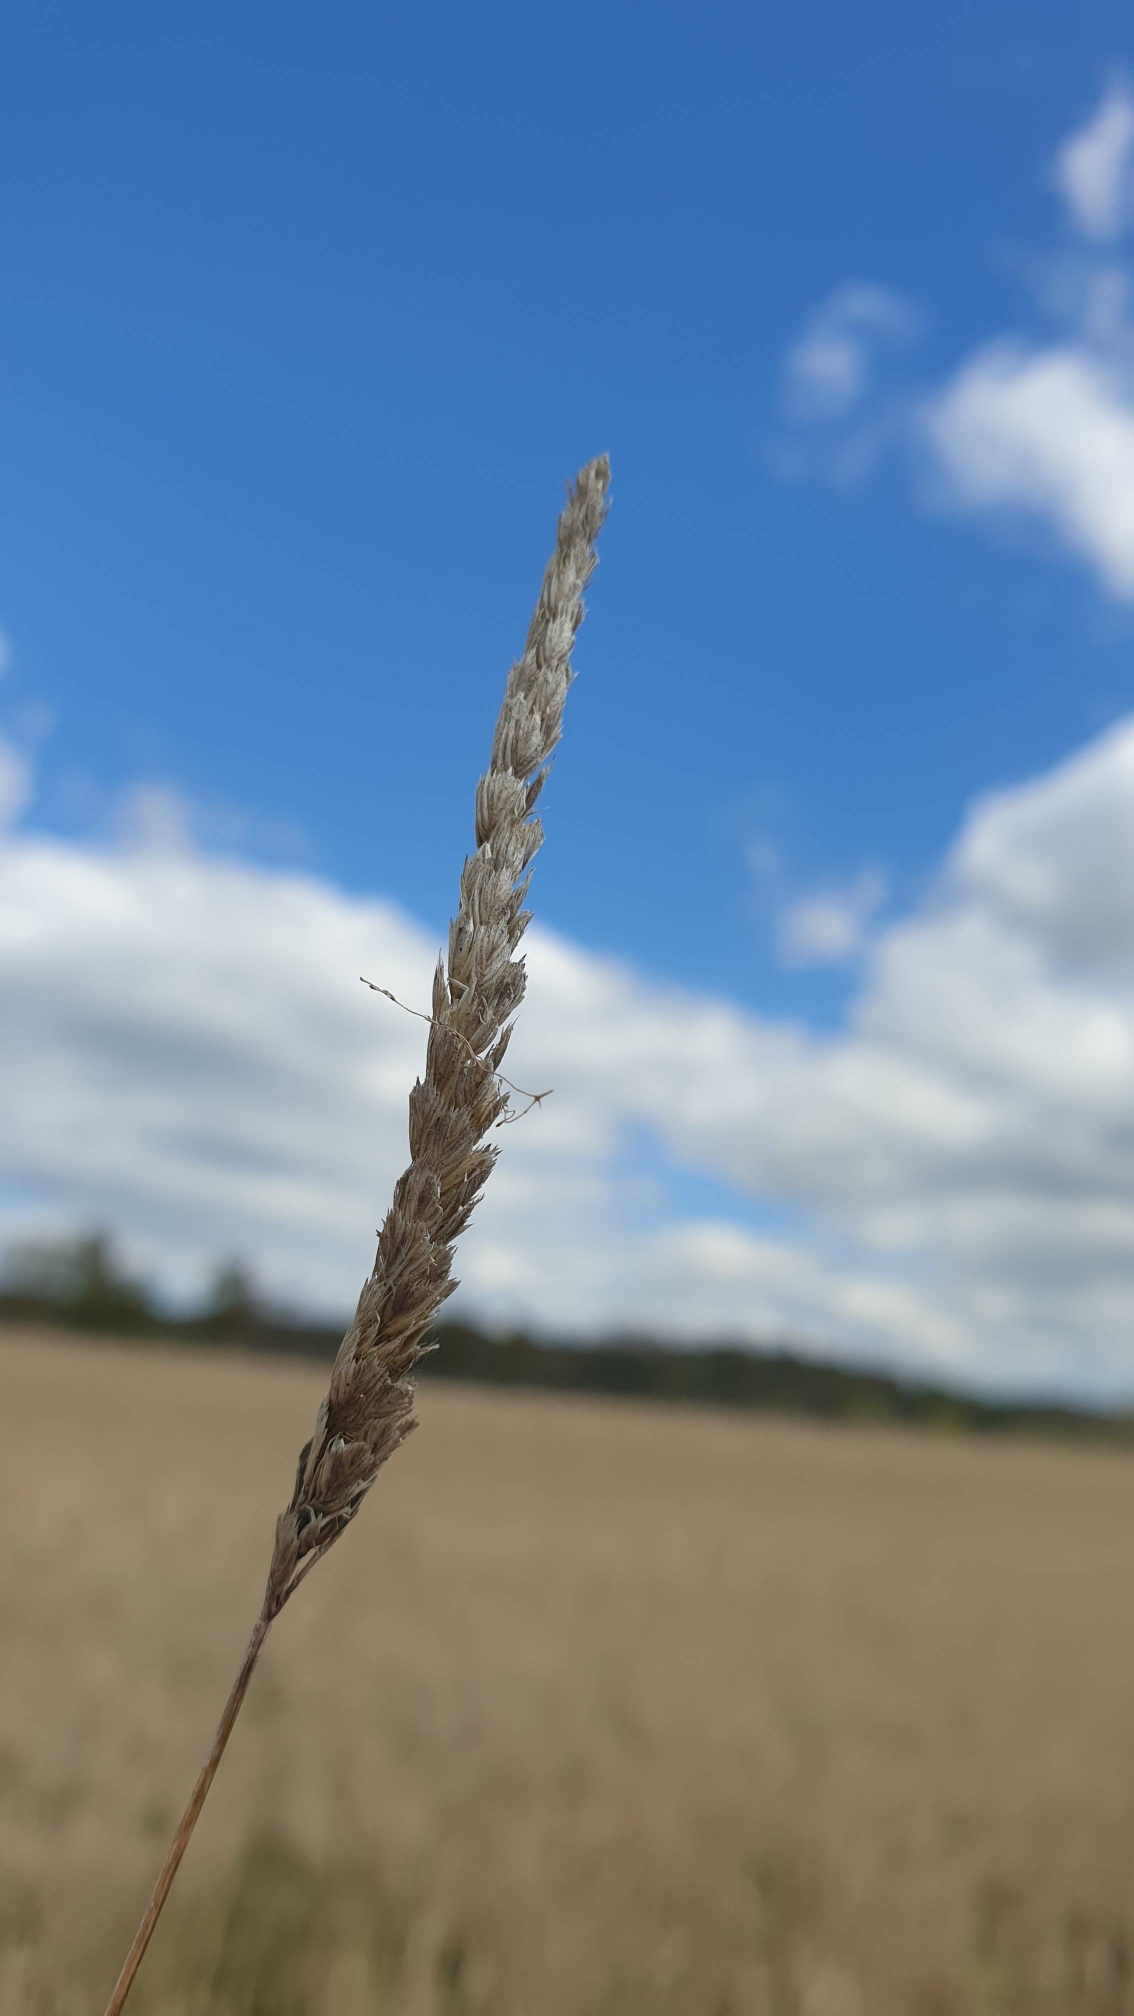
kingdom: Plantae
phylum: Tracheophyta
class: Liliopsida
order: Poales
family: Poaceae
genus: Cynosurus
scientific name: Cynosurus cristatus
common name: Kamgræs
